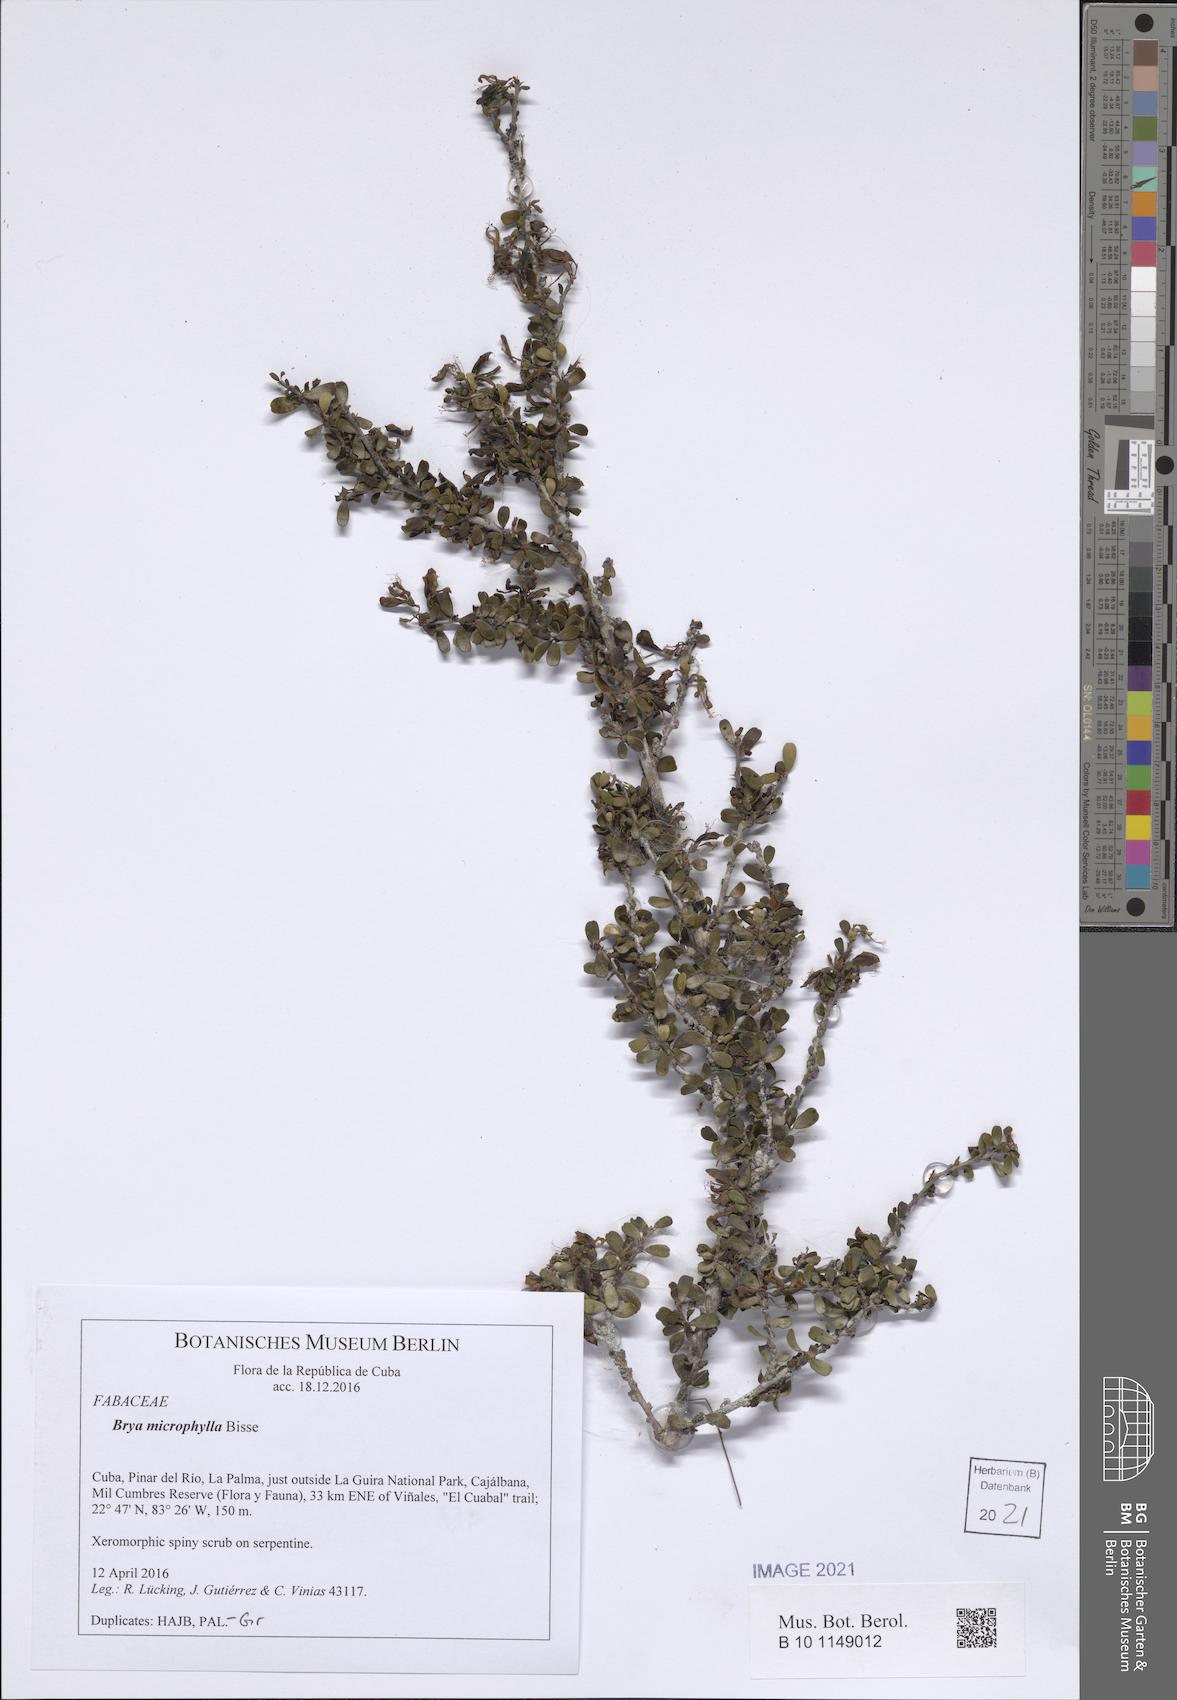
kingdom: Plantae
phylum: Tracheophyta
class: Magnoliopsida
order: Fabales
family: Fabaceae
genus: Brya
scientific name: Brya ebenus
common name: Cocoswood
